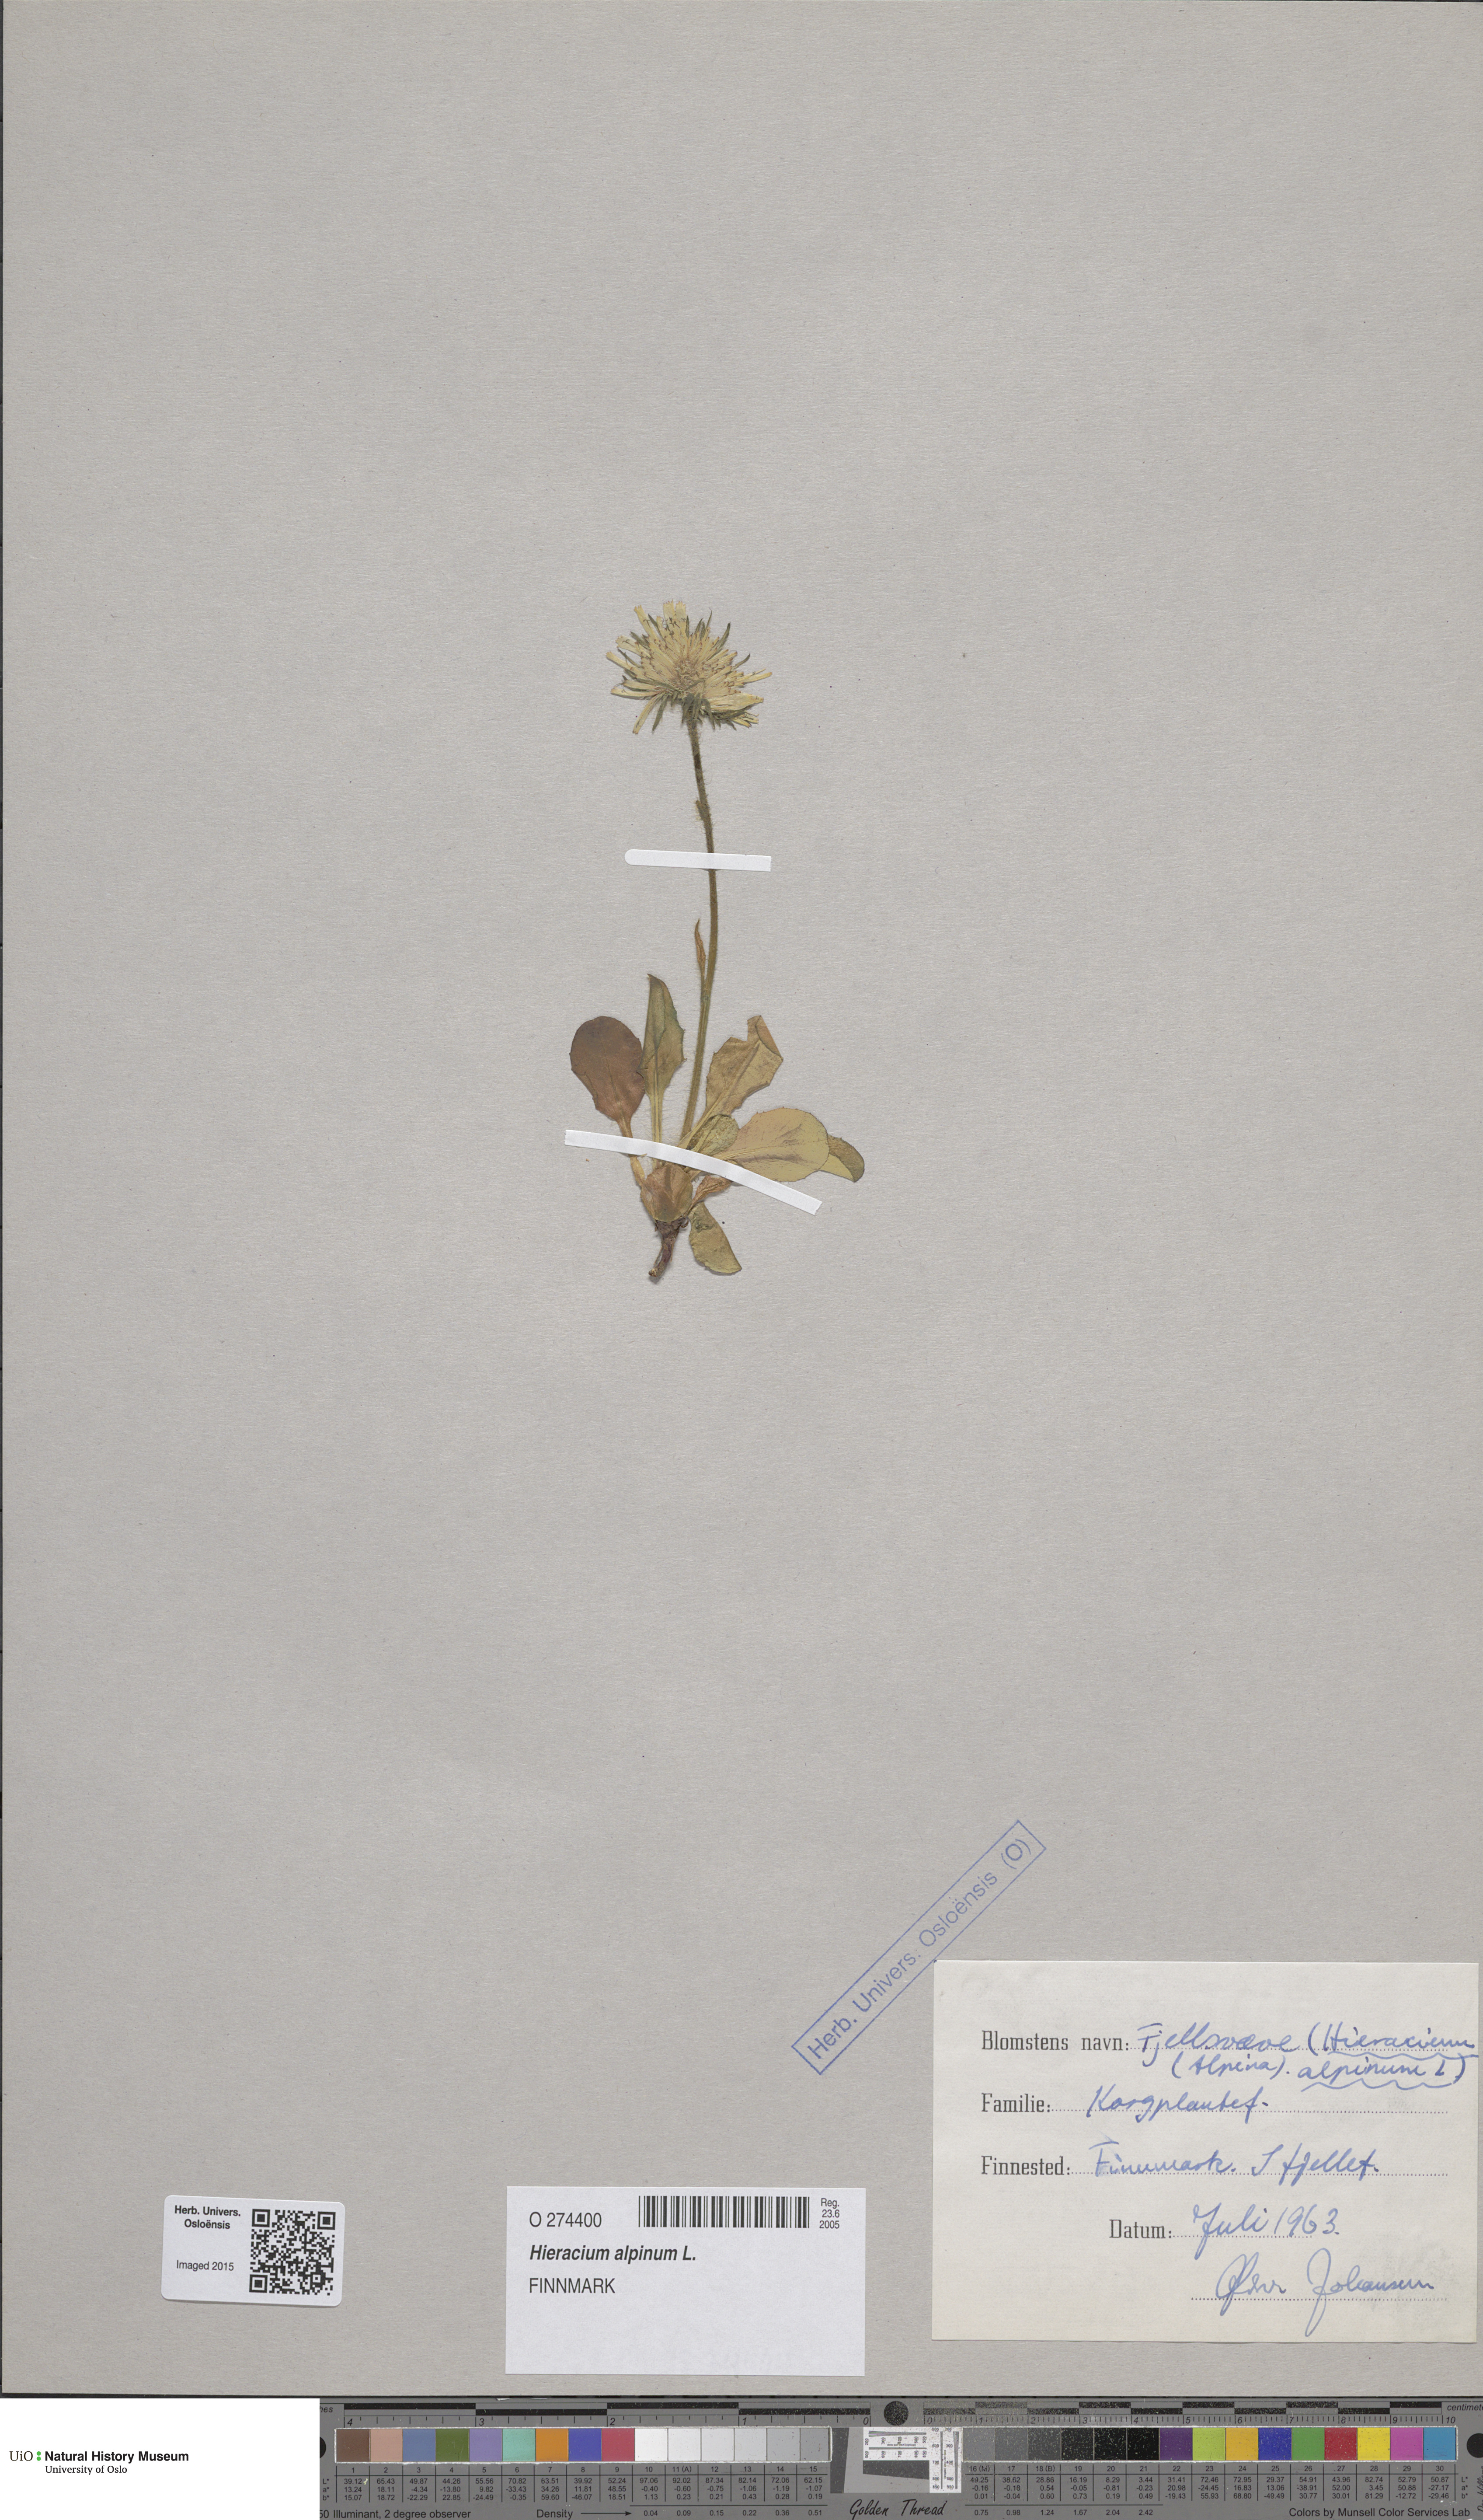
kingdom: Plantae
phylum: Tracheophyta
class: Magnoliopsida
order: Asterales
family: Asteraceae
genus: Hieracium
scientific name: Hieracium alpinum
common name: Alpine hawkweed
